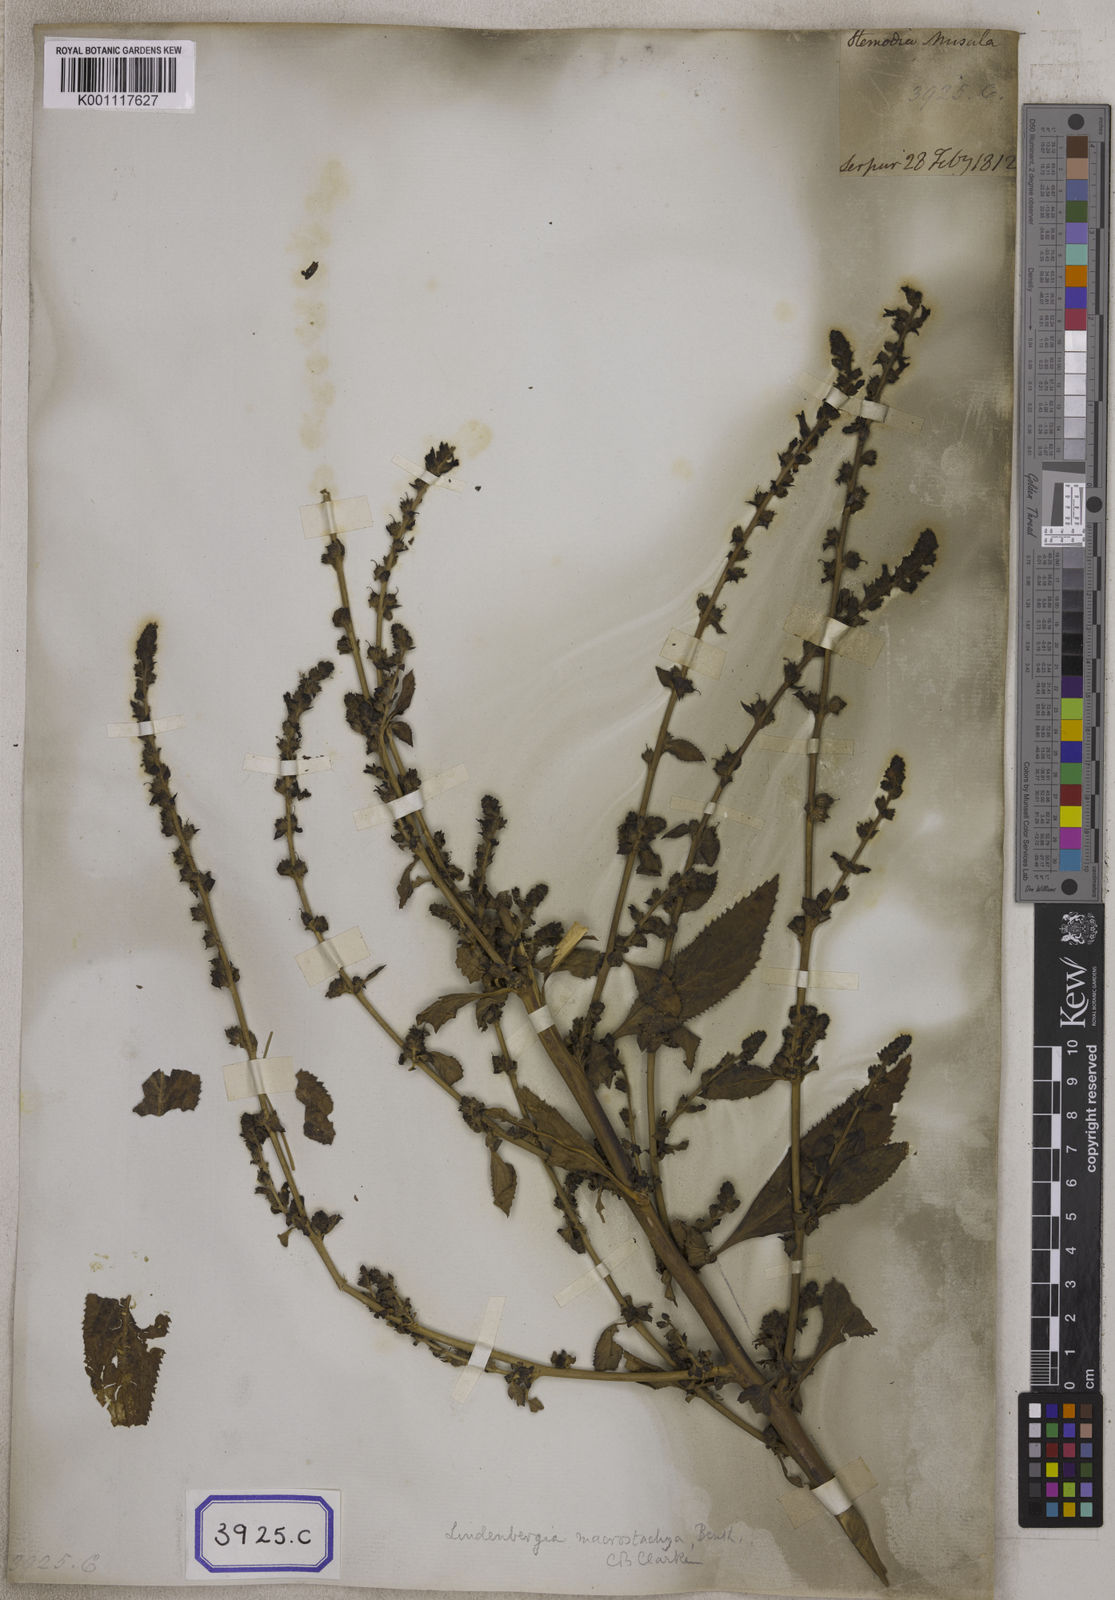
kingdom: Plantae
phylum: Tracheophyta
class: Magnoliopsida
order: Lamiales
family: Plantaginaceae
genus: Stemodia
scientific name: Stemodia
